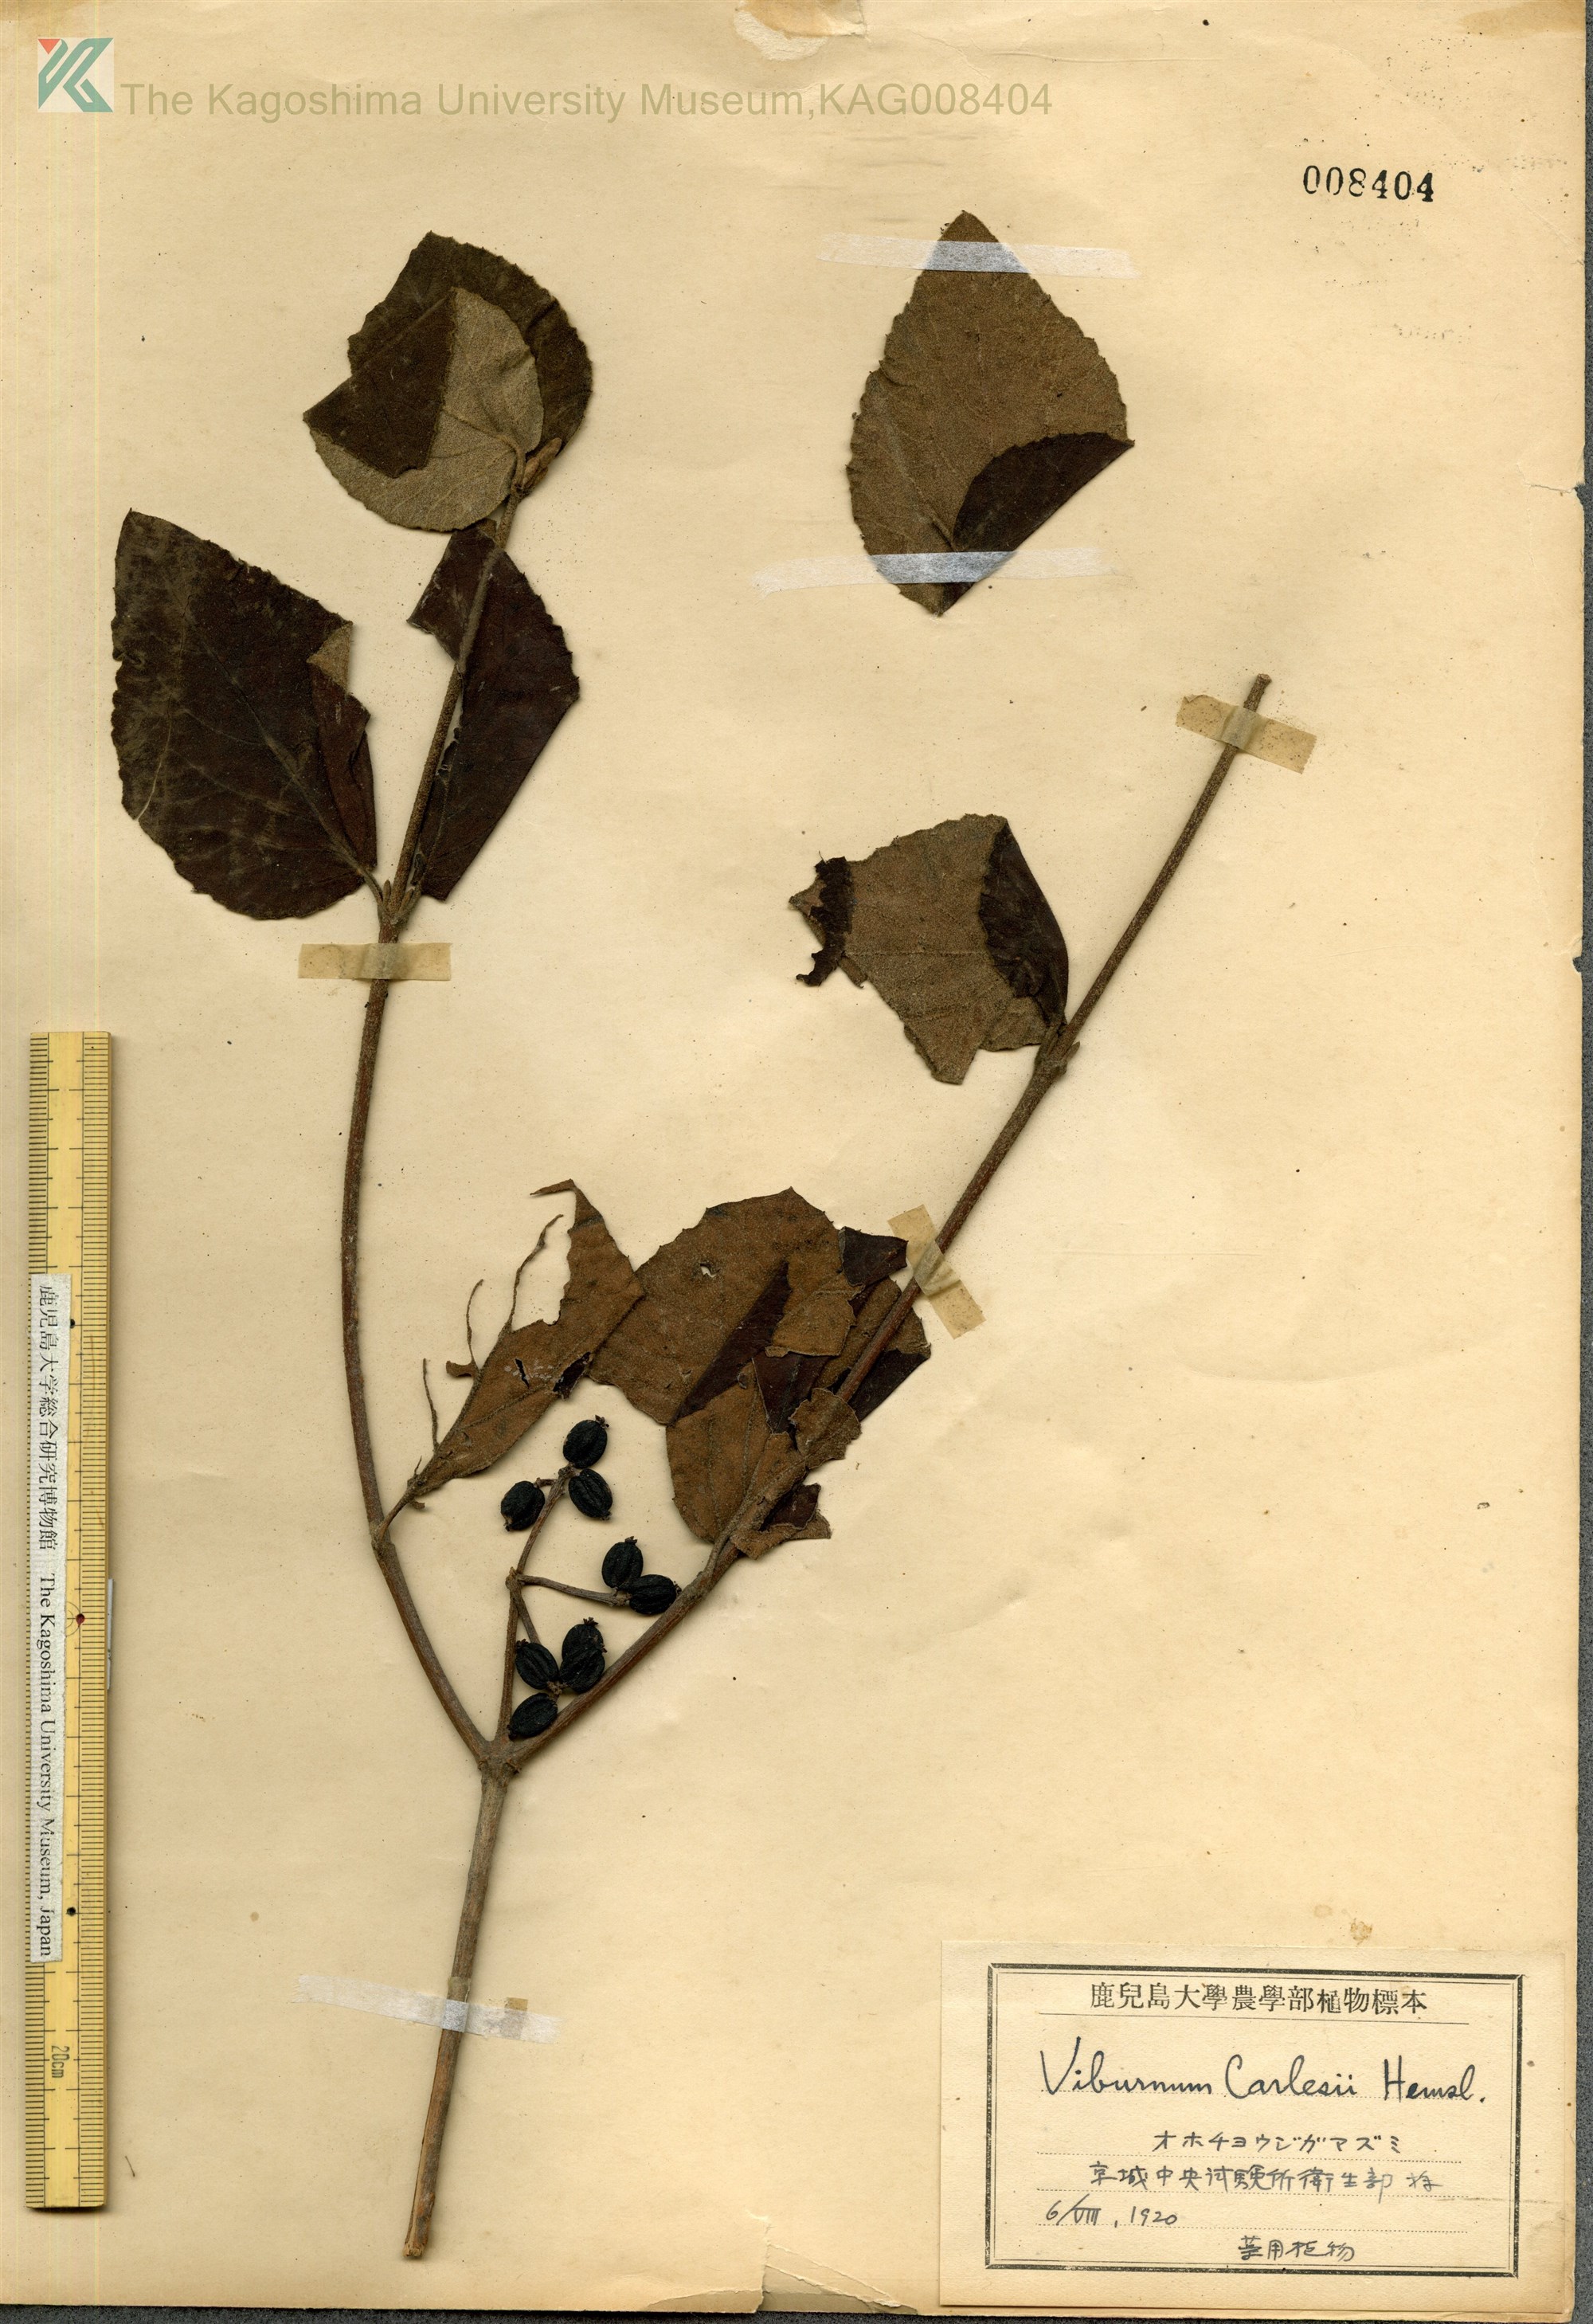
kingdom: Plantae
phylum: Tracheophyta
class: Magnoliopsida
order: Dipsacales
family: Viburnaceae
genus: Viburnum
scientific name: Viburnum carlesii
